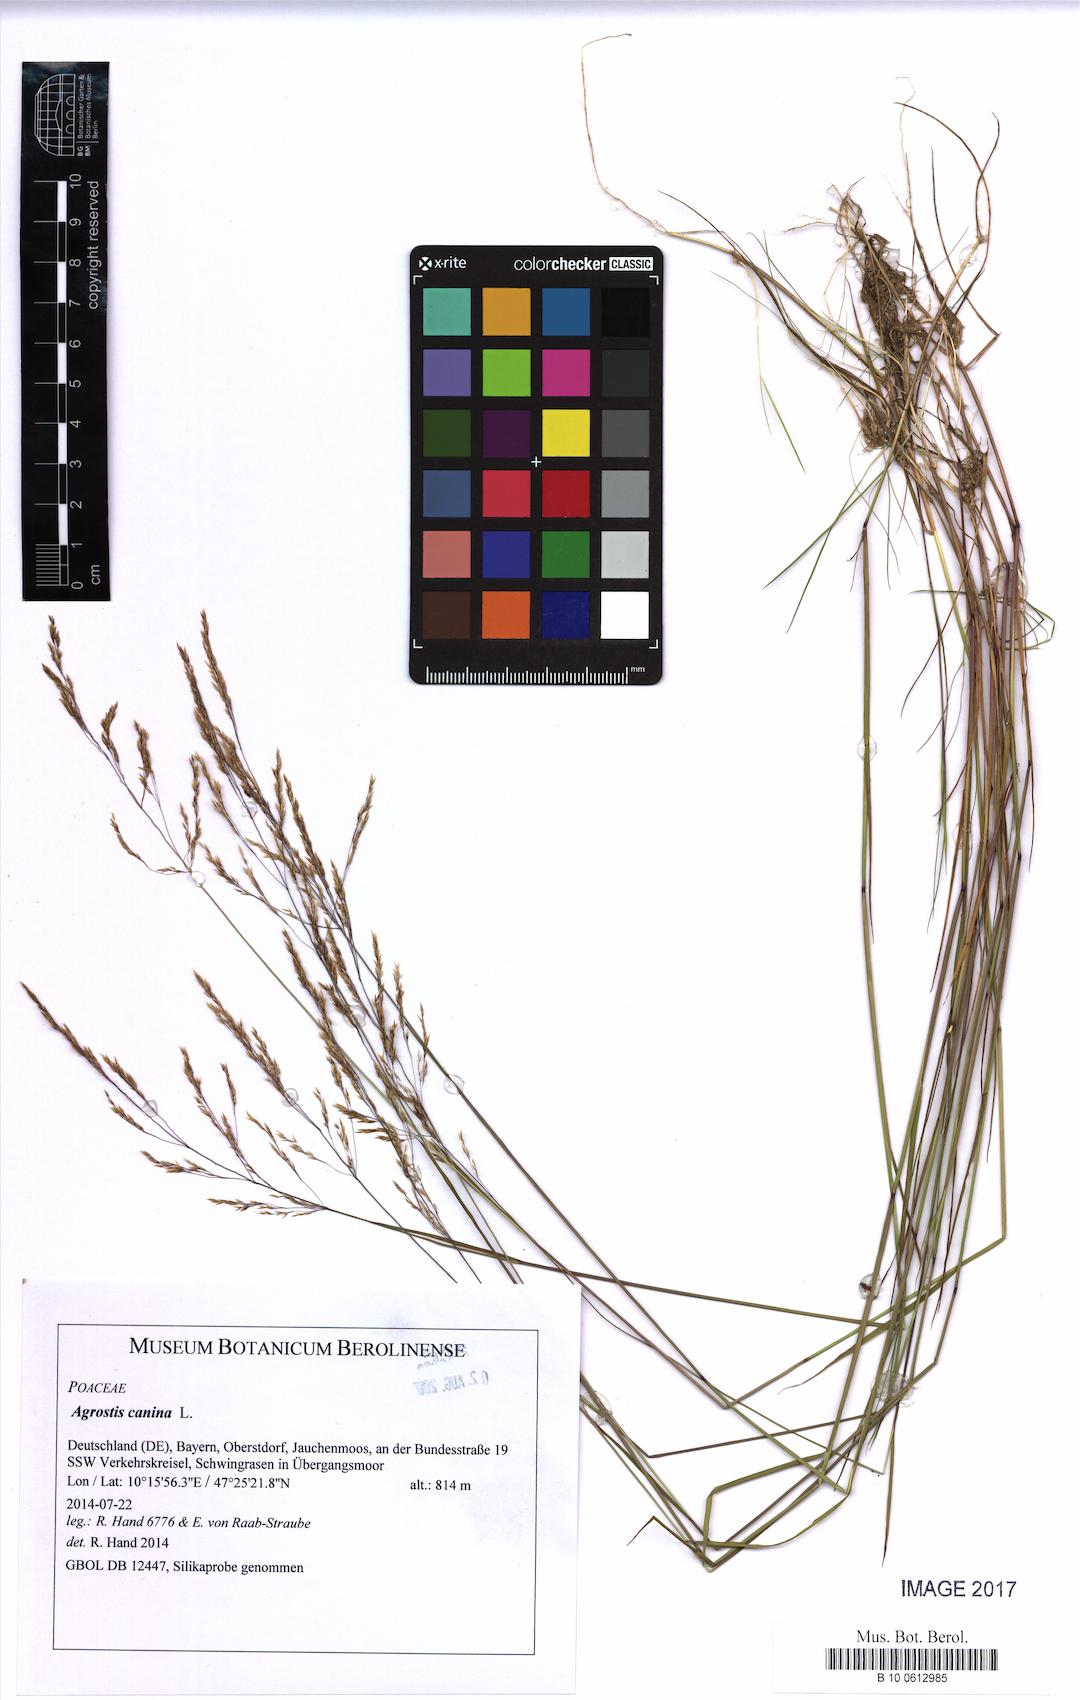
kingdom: Plantae
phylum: Tracheophyta
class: Liliopsida
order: Poales
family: Poaceae
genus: Agrostis
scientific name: Agrostis canina
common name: Velvet bent
